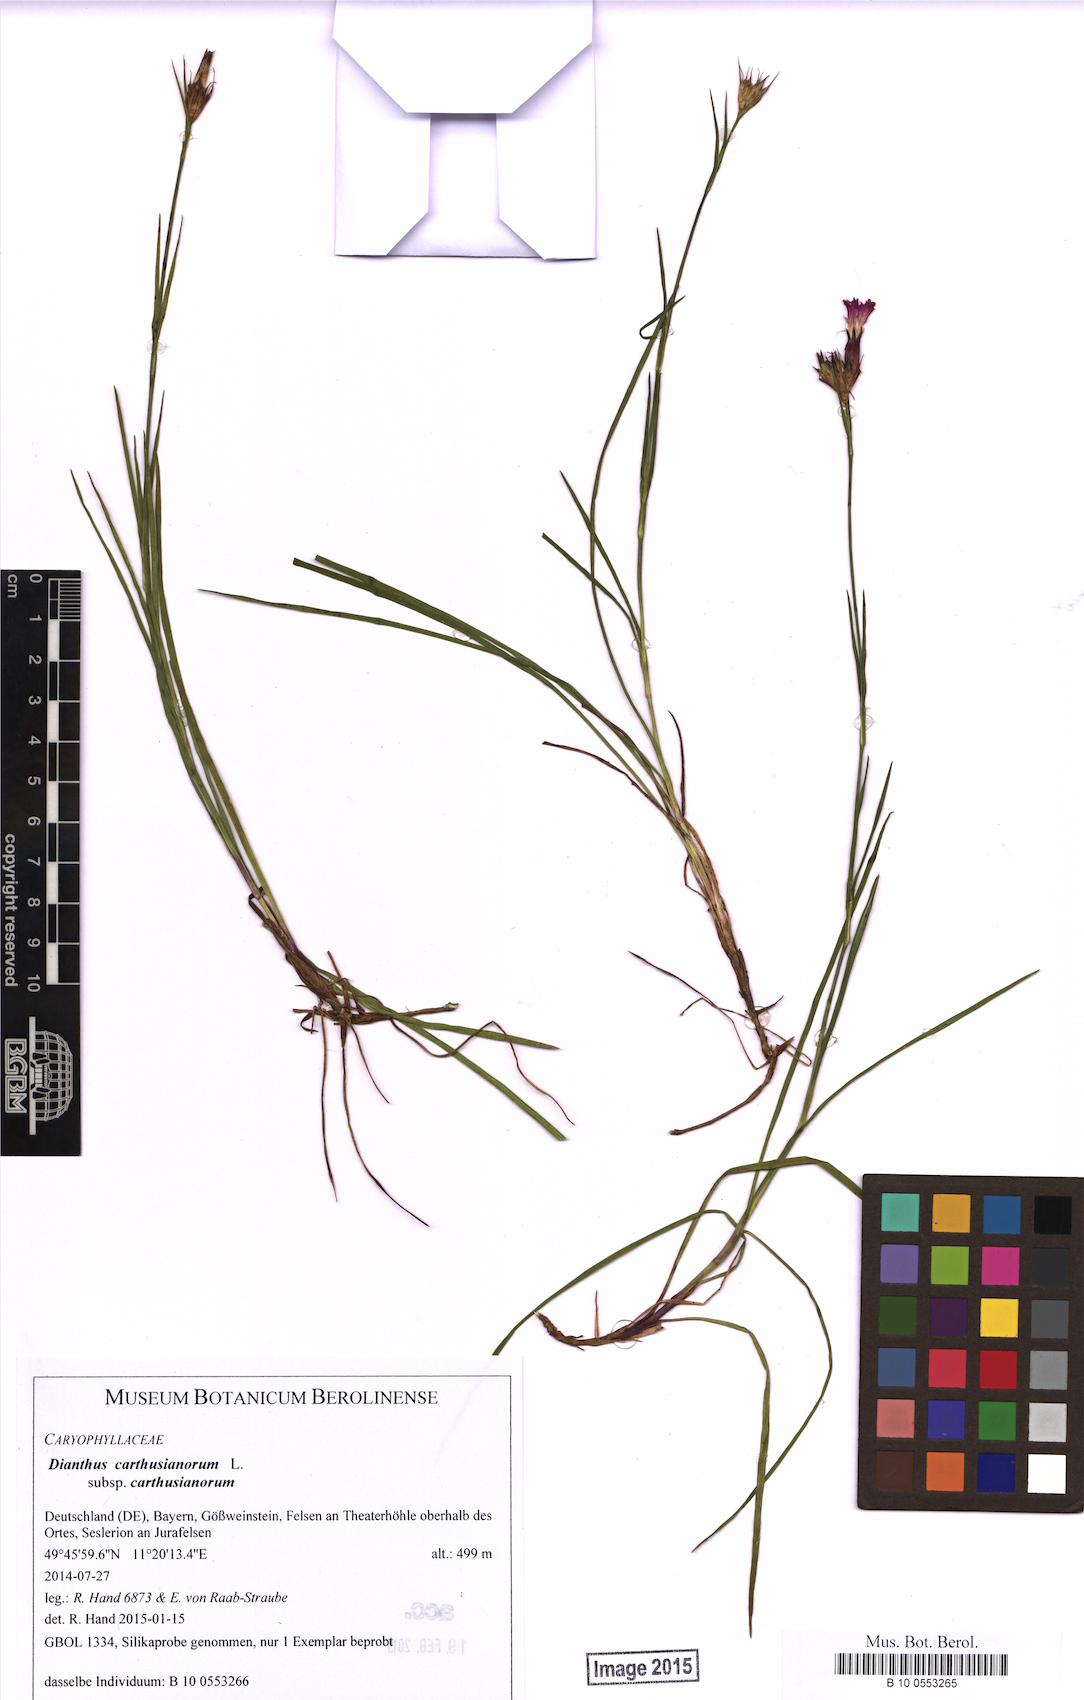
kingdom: Plantae
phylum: Tracheophyta
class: Magnoliopsida
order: Caryophyllales
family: Caryophyllaceae
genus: Dianthus
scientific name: Dianthus carthusianorum
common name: Carthusian pink
